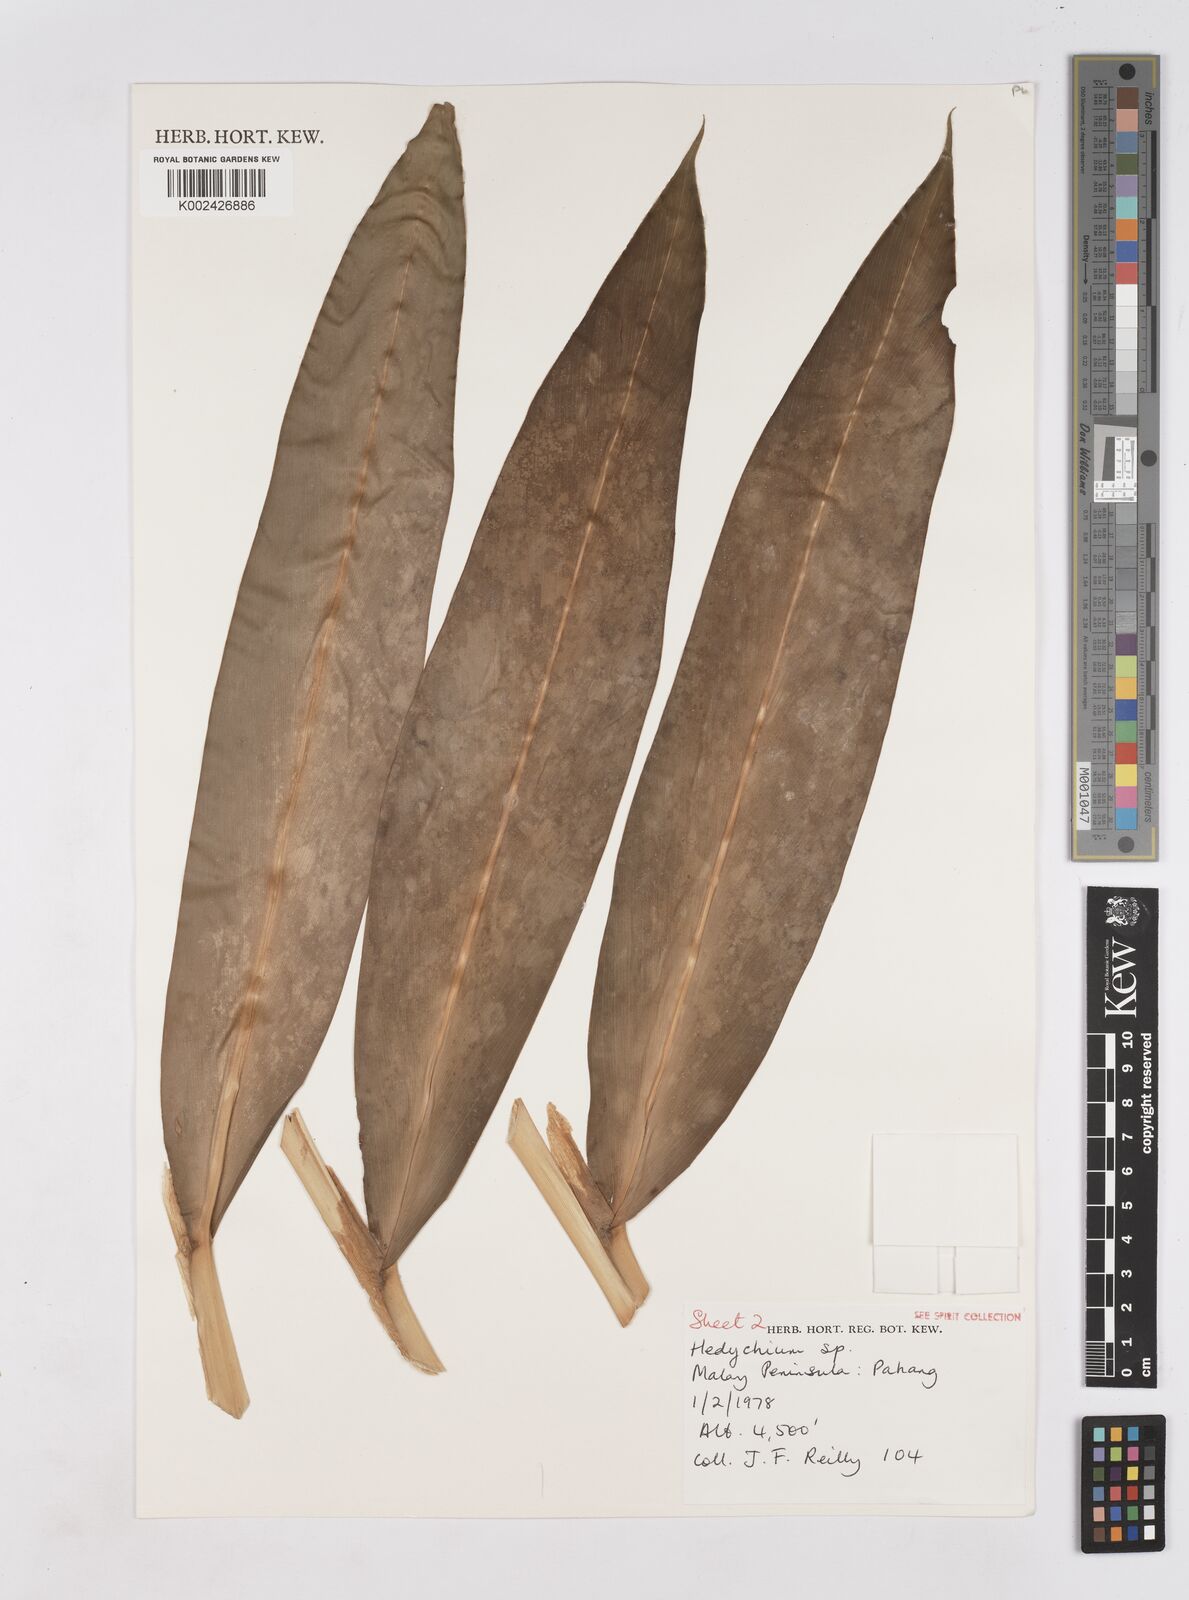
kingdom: Plantae
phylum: Tracheophyta
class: Liliopsida
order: Zingiberales
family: Zingiberaceae
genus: Hedychium
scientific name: Hedychium
